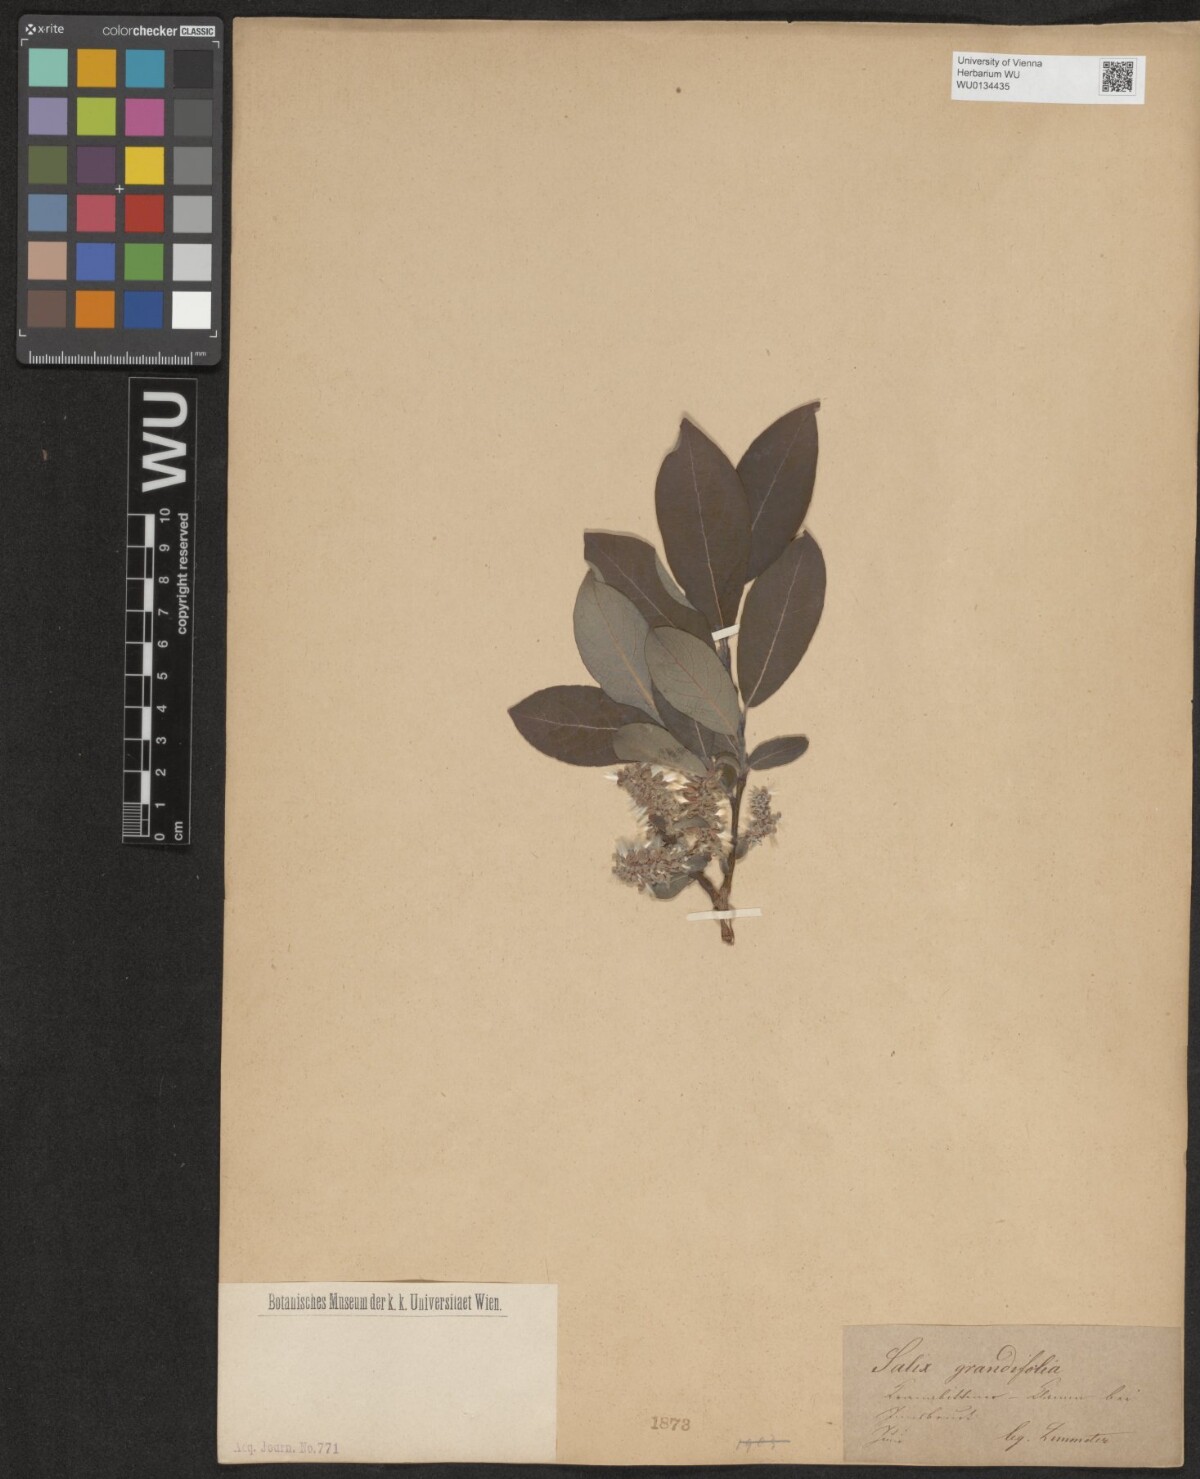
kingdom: Plantae
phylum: Tracheophyta
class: Magnoliopsida
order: Malpighiales
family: Salicaceae
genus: Salix
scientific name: Salix appendiculata
